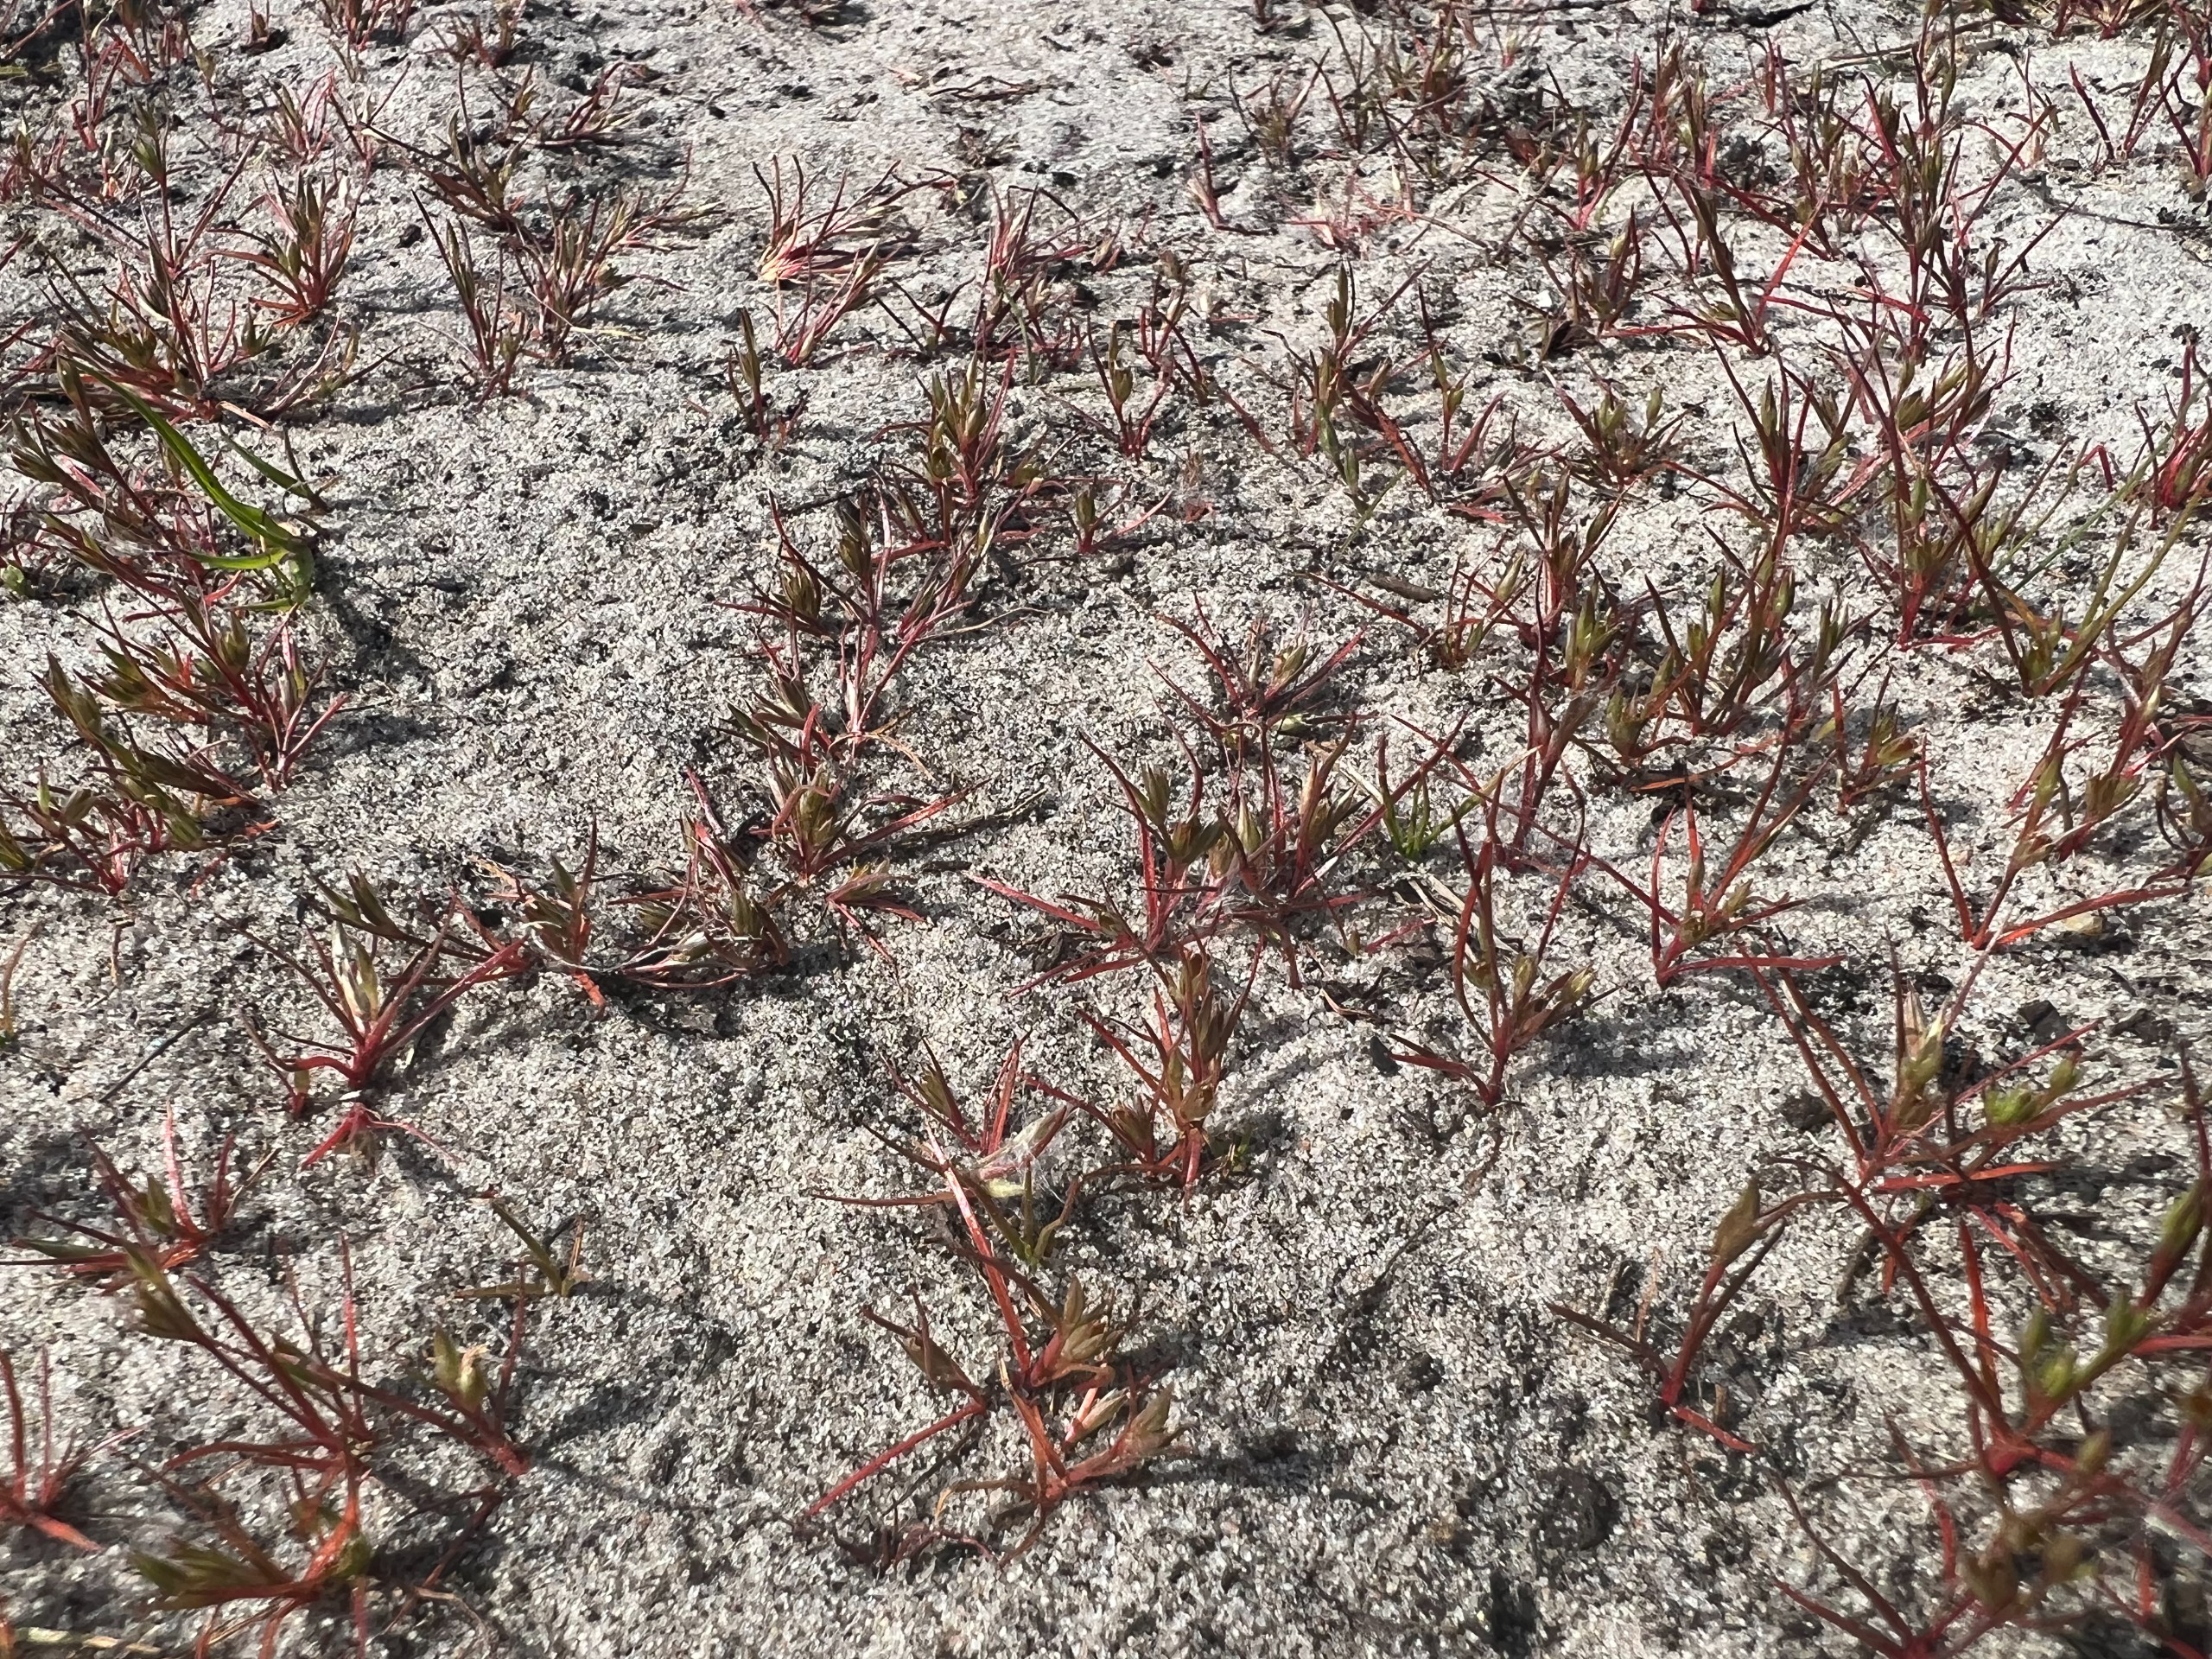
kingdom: Plantae
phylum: Tracheophyta
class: Liliopsida
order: Poales
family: Juncaceae
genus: Juncus
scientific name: Juncus minutulus
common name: Småblomstret siv
